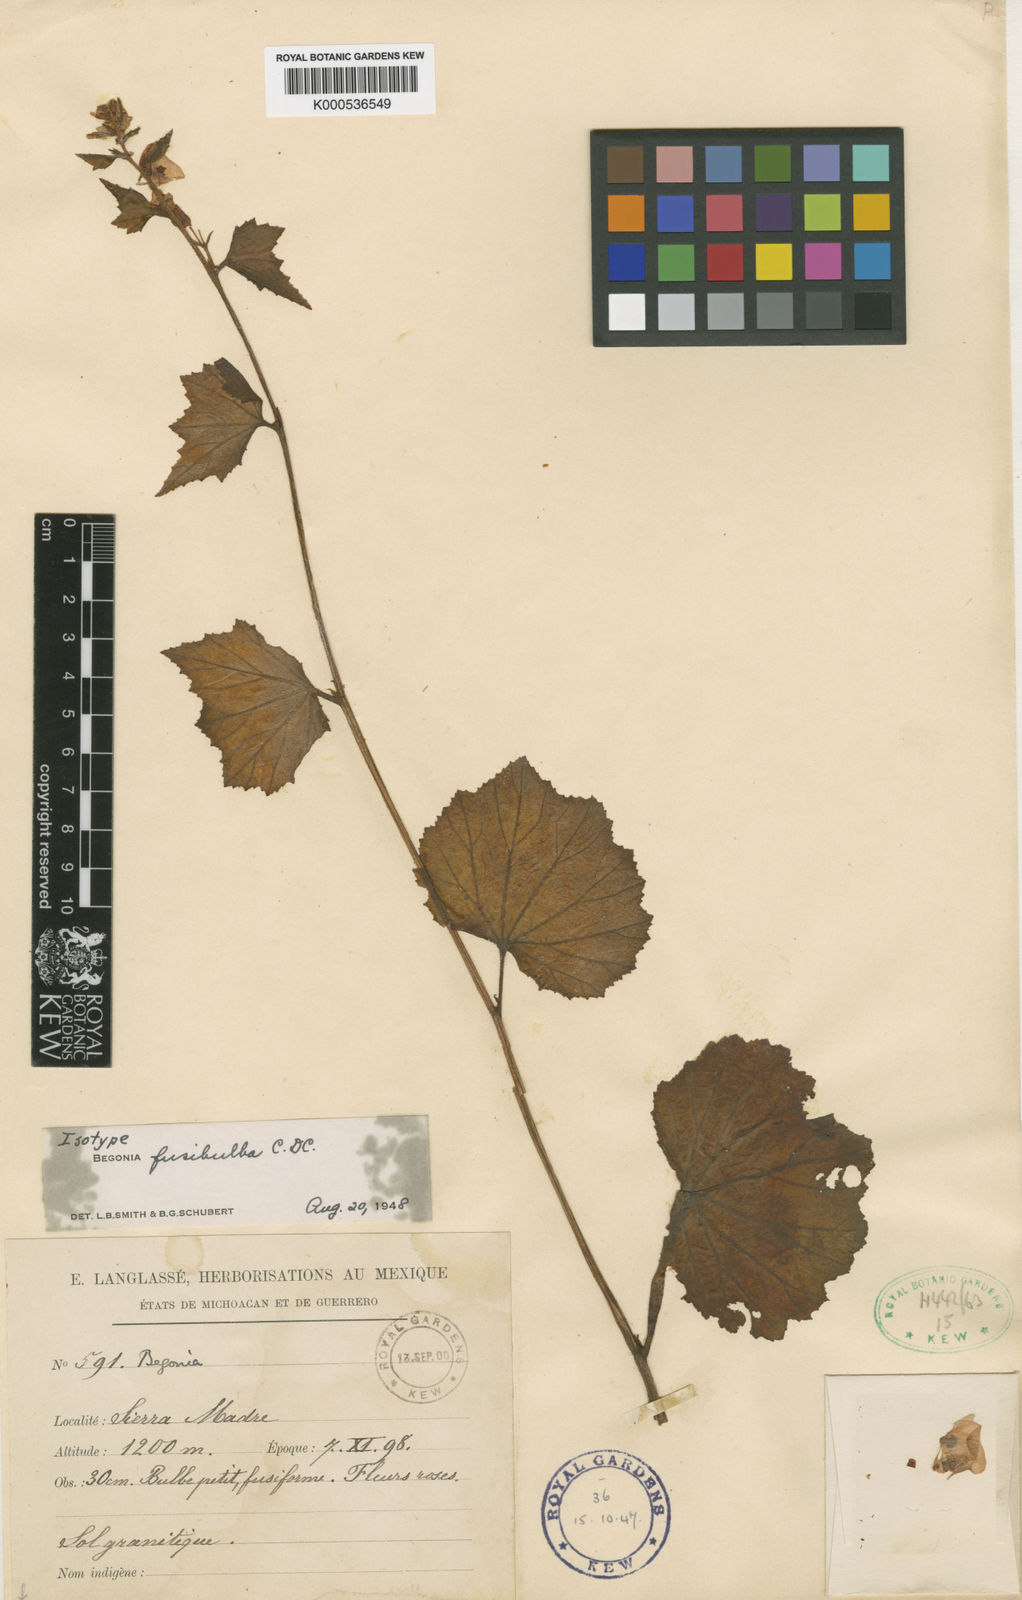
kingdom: Plantae
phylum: Tracheophyta
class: Magnoliopsida
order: Cucurbitales
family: Begoniaceae
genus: Begonia
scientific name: Begonia fusibulba
